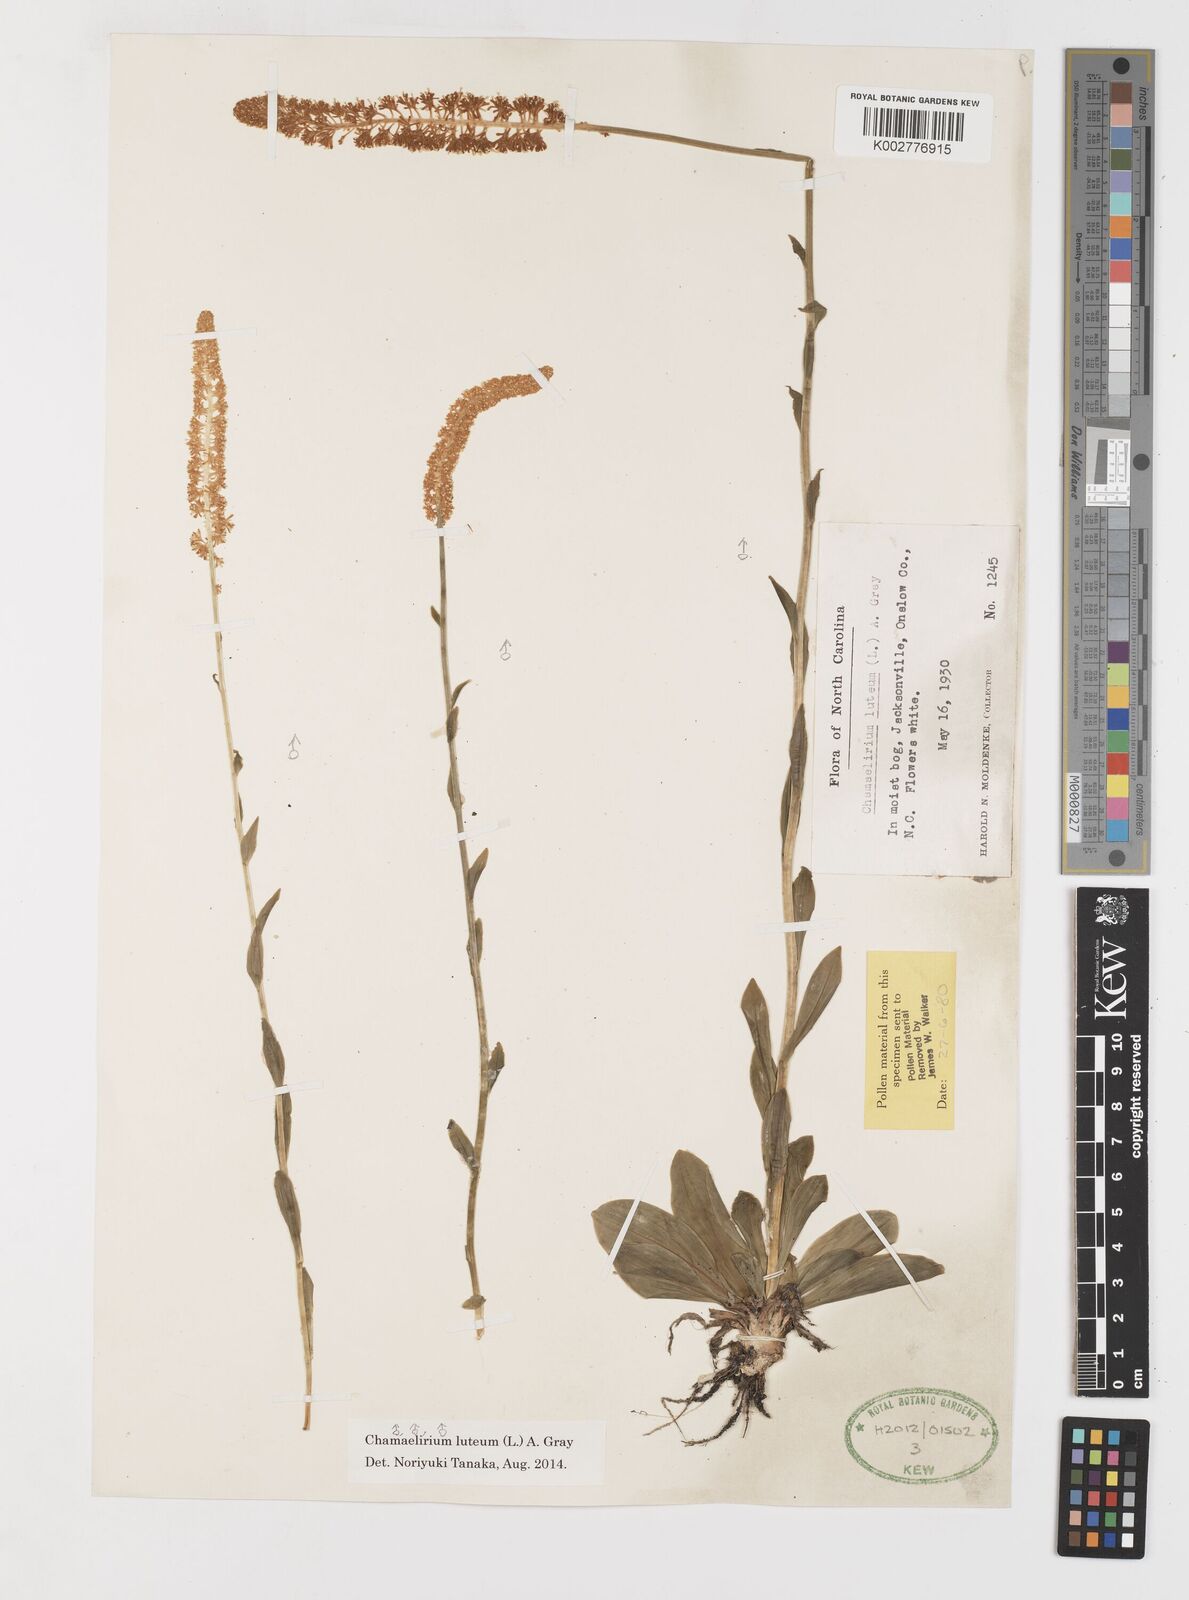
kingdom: Plantae
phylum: Tracheophyta
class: Liliopsida
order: Liliales
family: Melanthiaceae
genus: Chamaelirium
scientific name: Chamaelirium luteum
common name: Fairy-wand
